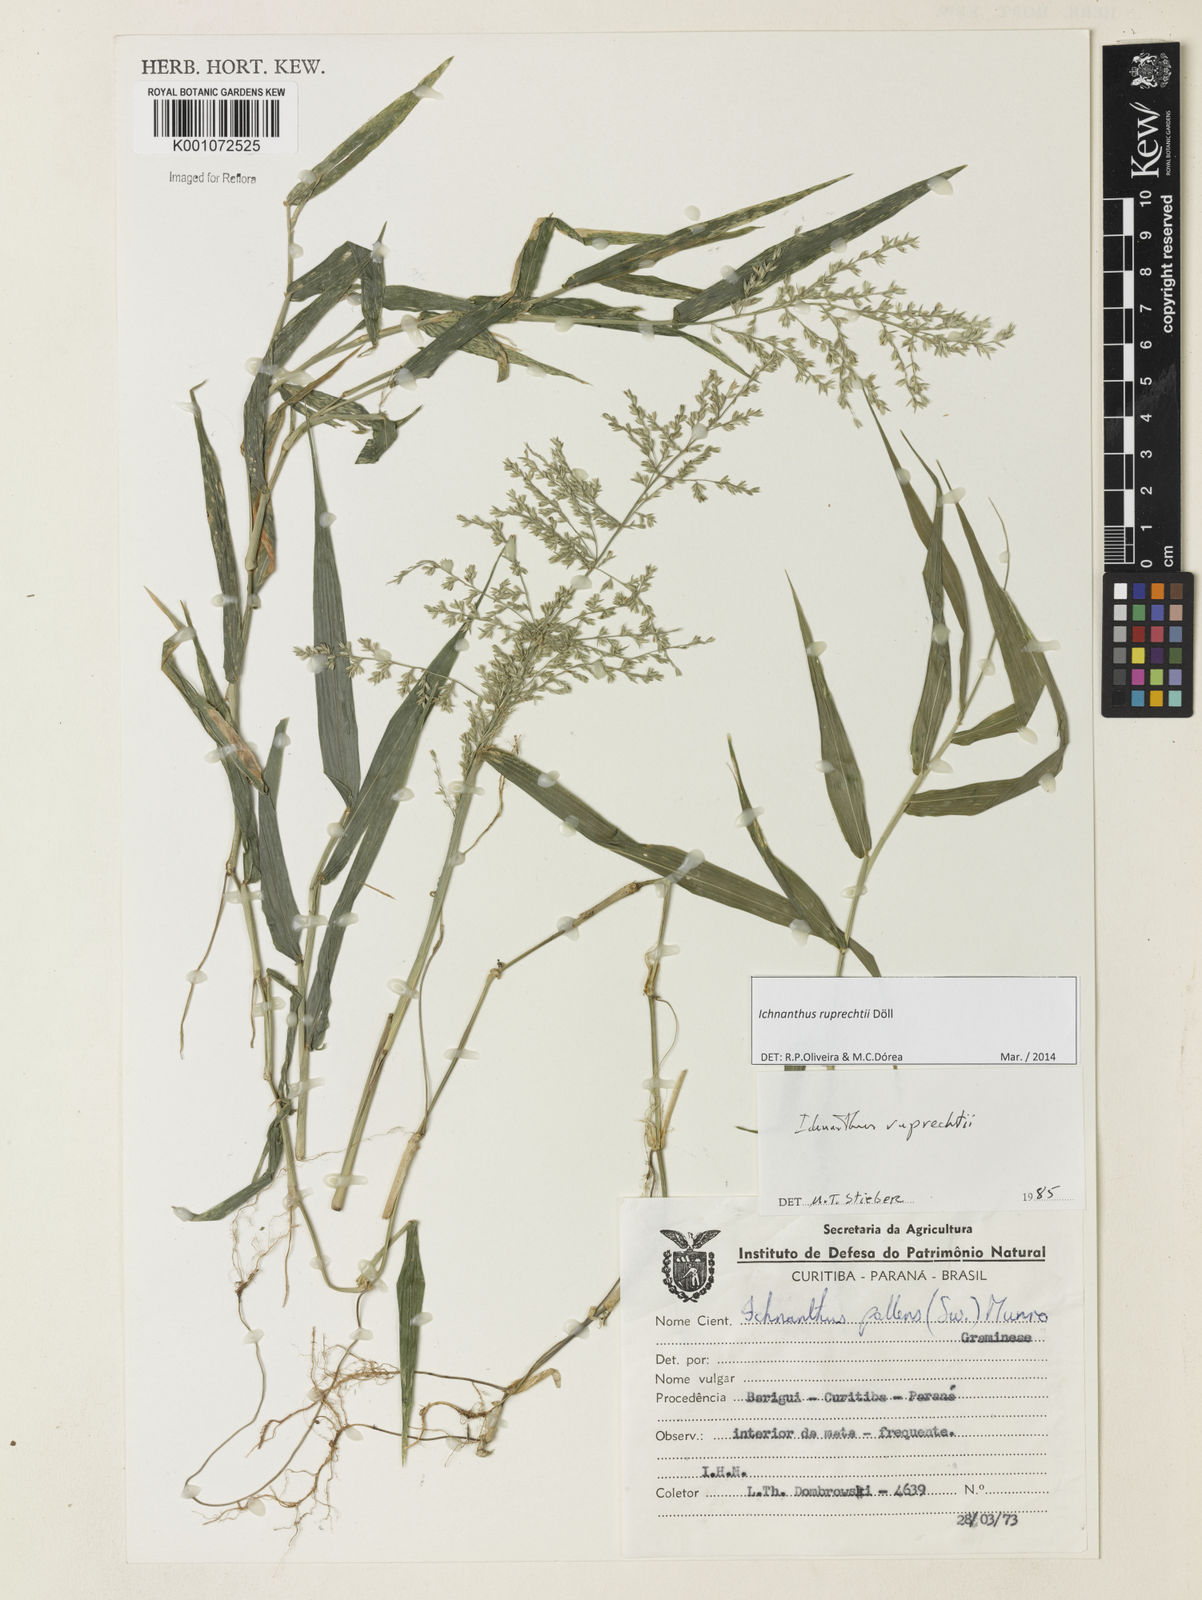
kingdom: Plantae
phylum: Tracheophyta
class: Liliopsida
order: Poales
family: Poaceae
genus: Ichnanthus
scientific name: Ichnanthus
